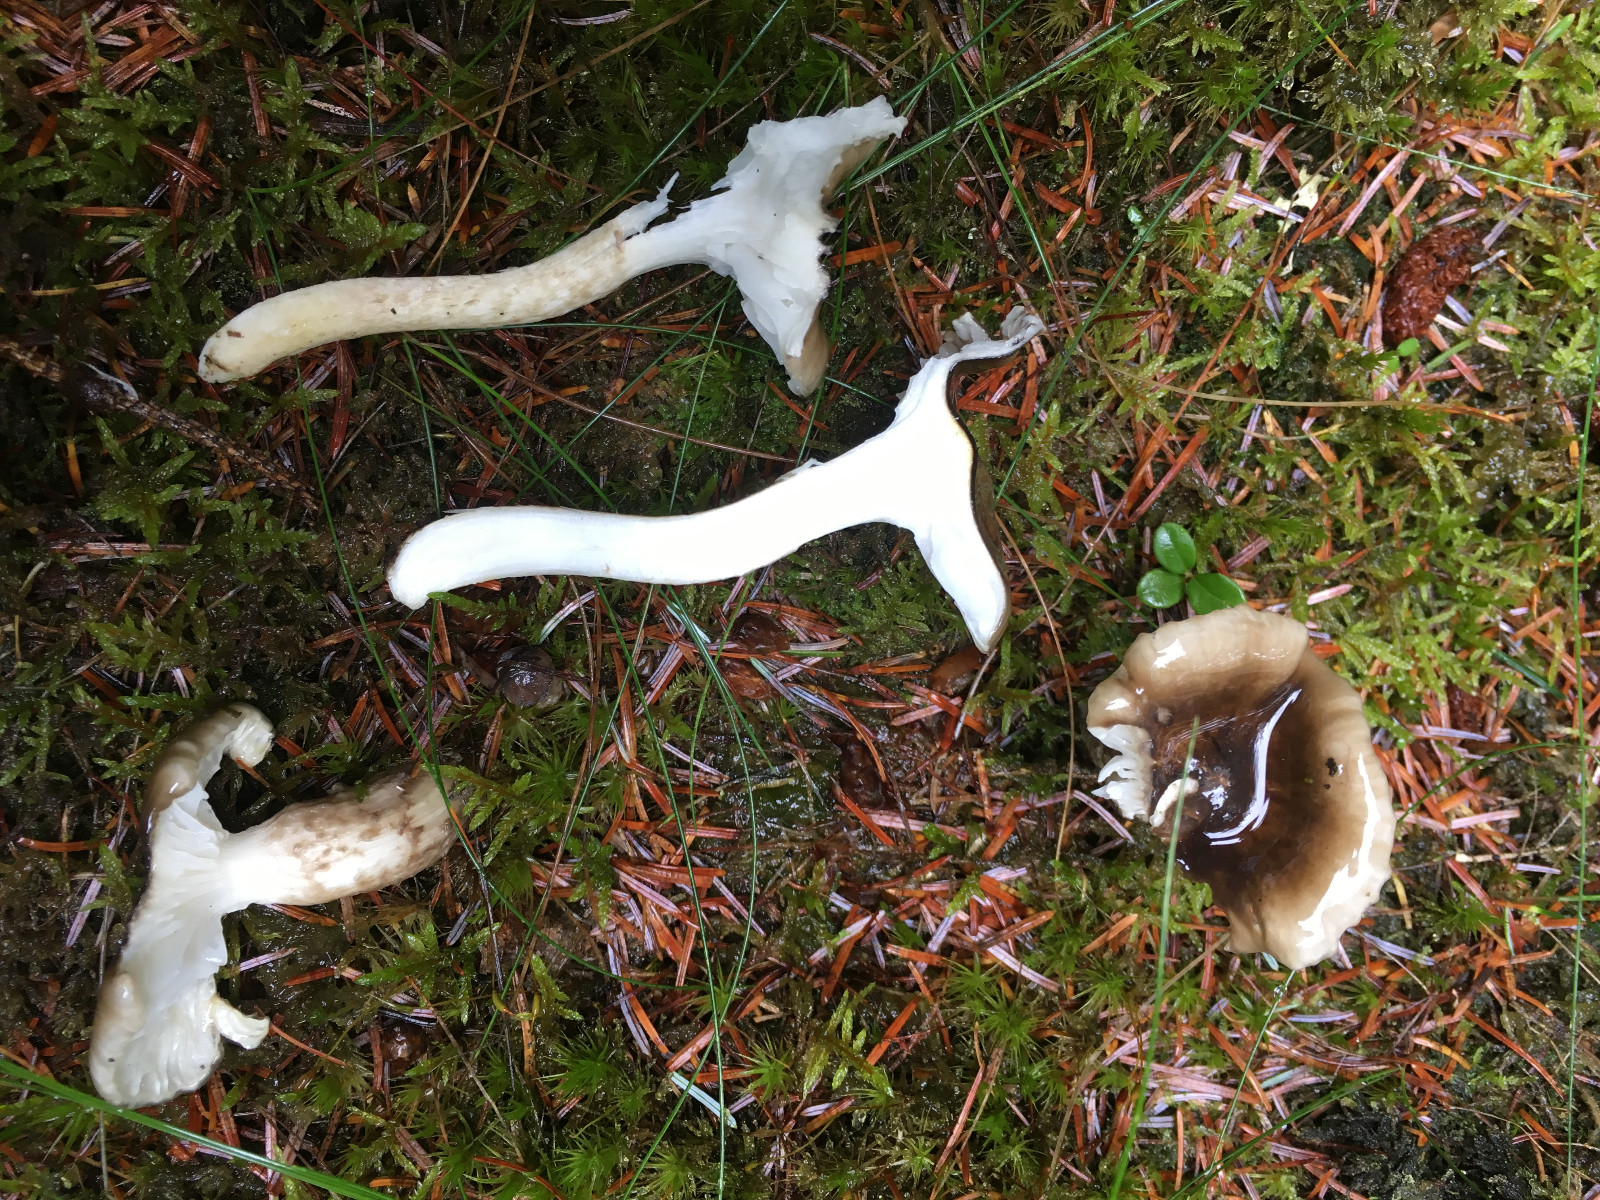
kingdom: Fungi
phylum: Basidiomycota
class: Agaricomycetes
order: Agaricales
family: Hygrophoraceae
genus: Hygrophorus
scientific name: Hygrophorus olivaceoalbus
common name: hvidbrun sneglehat
